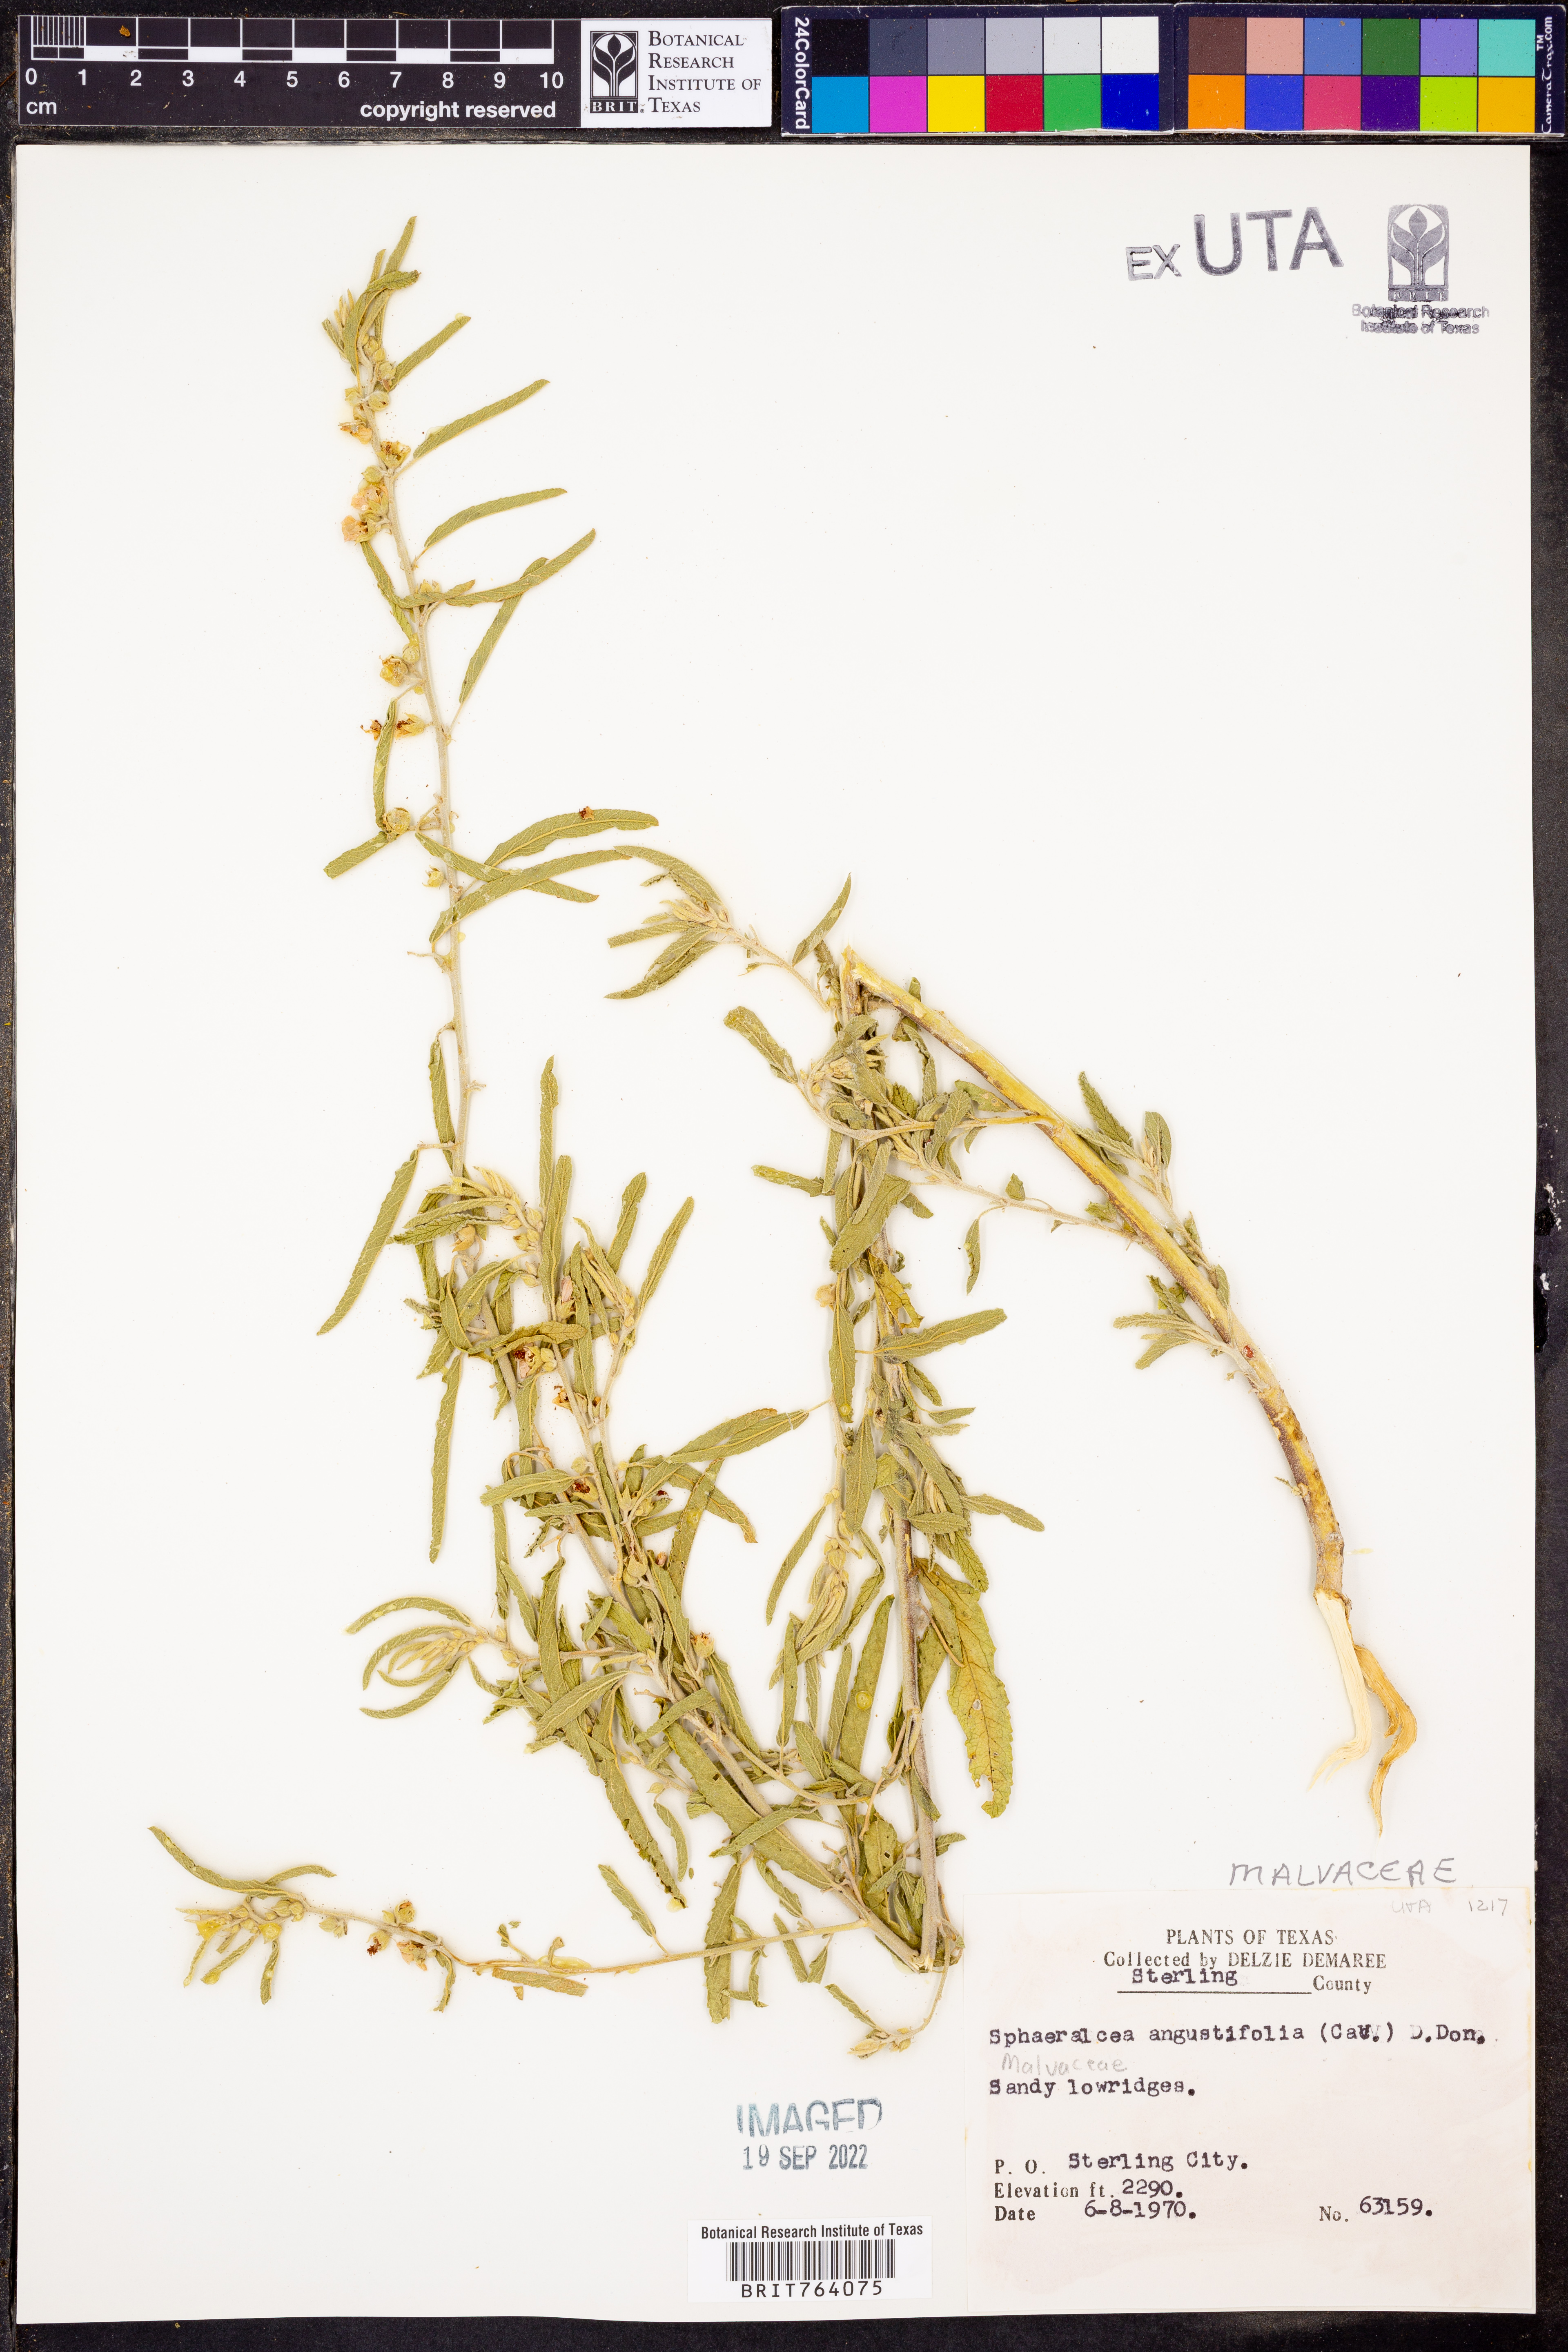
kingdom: Plantae
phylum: Tracheophyta
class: Magnoliopsida
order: Malvales
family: Malvaceae
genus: Sphaeralcea
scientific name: Sphaeralcea angustifolia
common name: Copper globe-mallow
